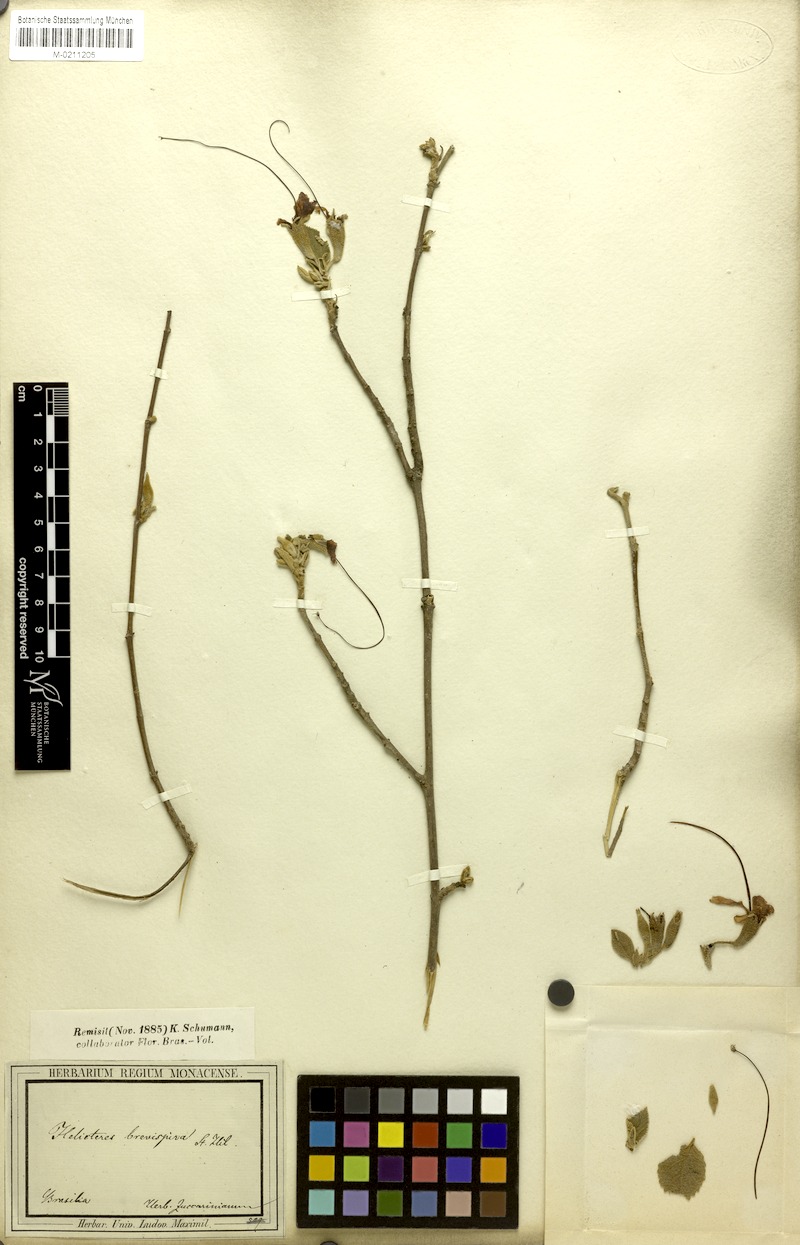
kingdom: Plantae
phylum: Tracheophyta
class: Magnoliopsida
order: Malvales
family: Malvaceae
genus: Helicteres
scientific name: Helicteres brevispira
